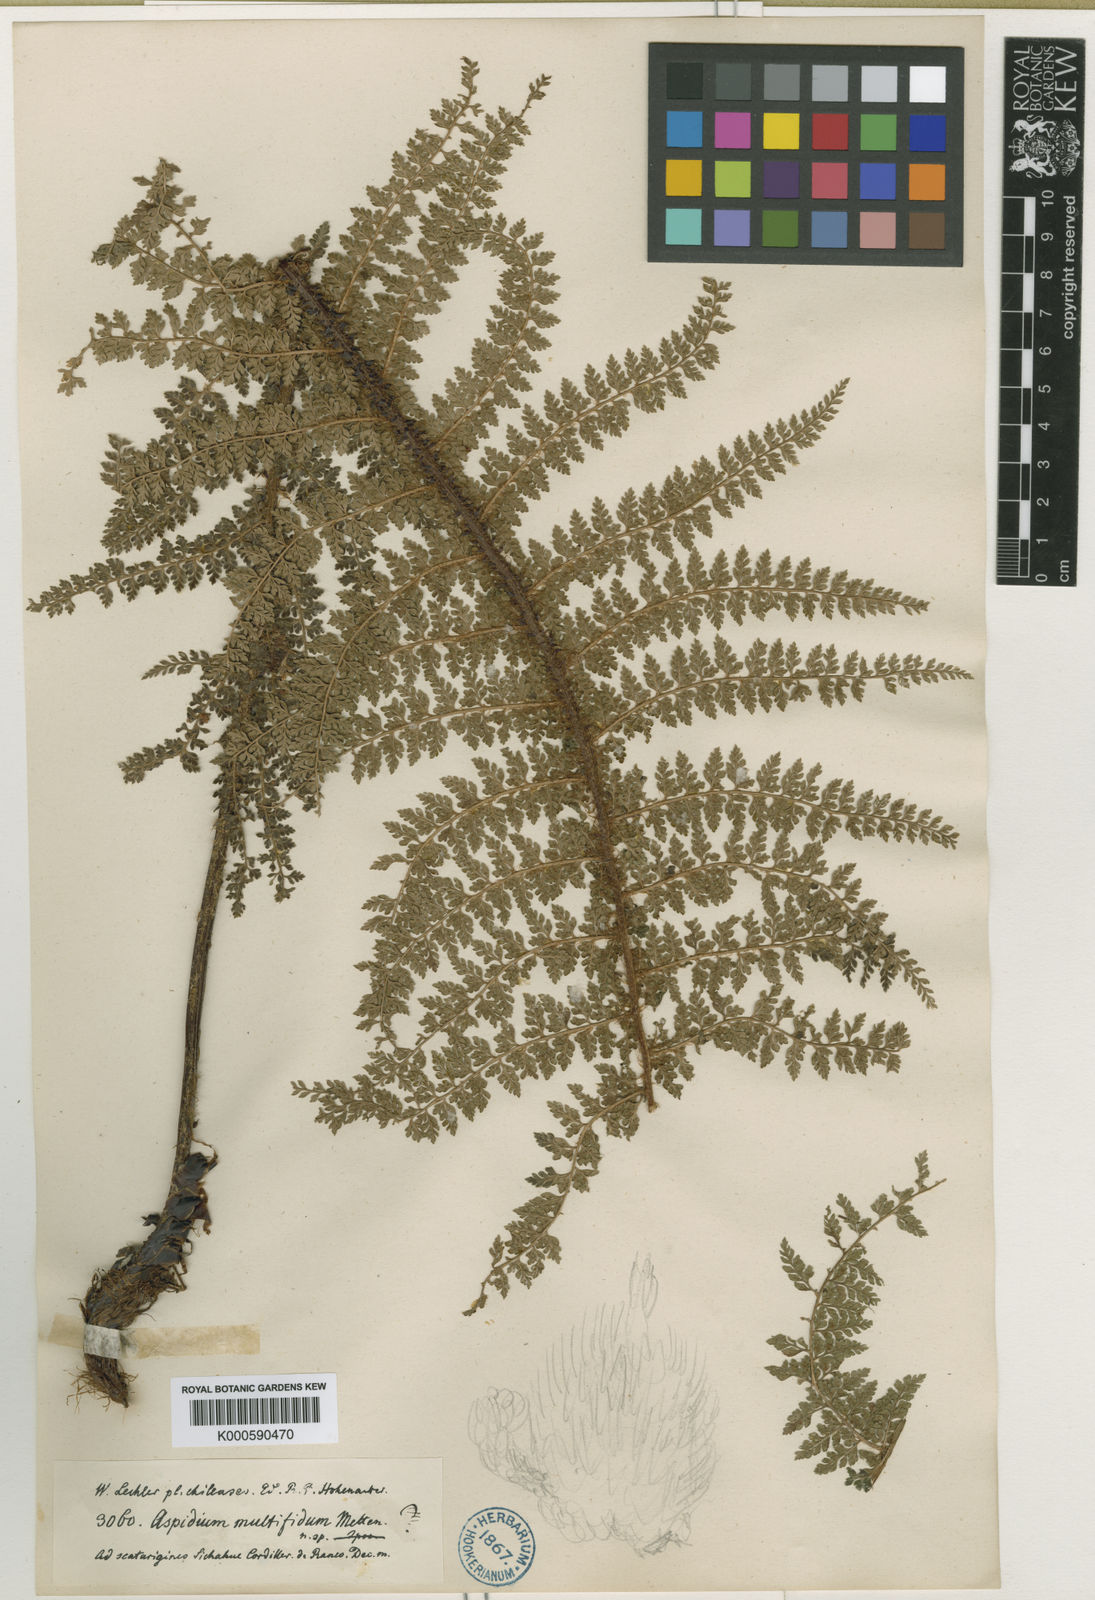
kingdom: Plantae
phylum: Tracheophyta
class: Polypodiopsida
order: Polypodiales
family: Dryopteridaceae
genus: Polystichum
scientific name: Polystichum multifidum
